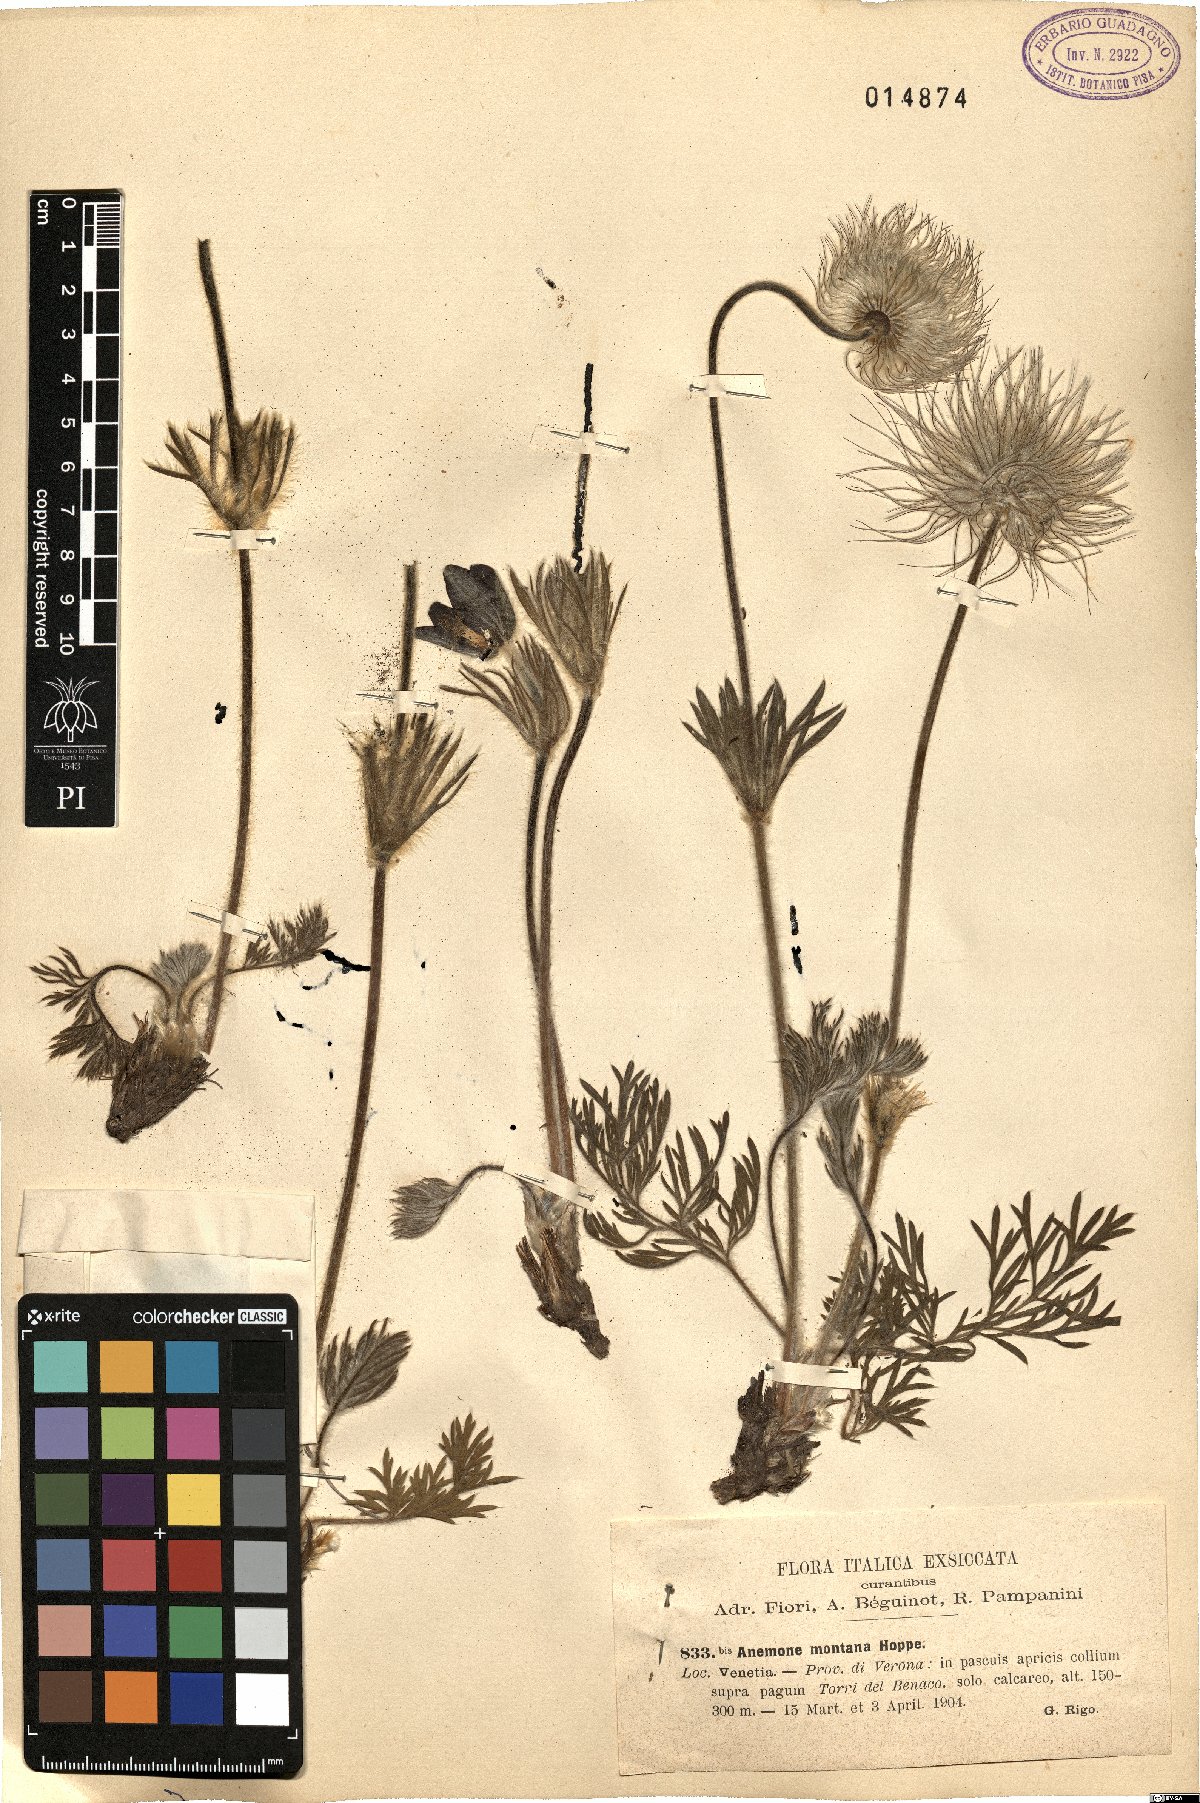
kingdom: Plantae
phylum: Tracheophyta
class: Magnoliopsida
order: Ranunculales
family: Ranunculaceae
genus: Pulsatilla
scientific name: Pulsatilla montana
